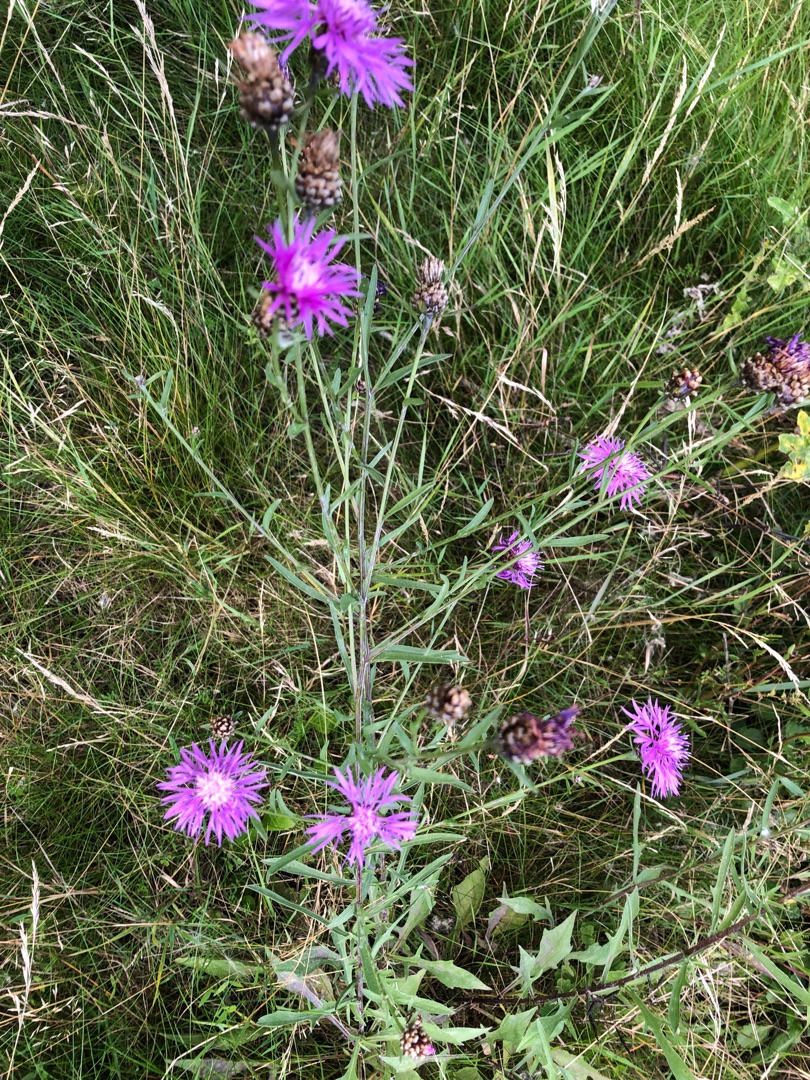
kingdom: Plantae
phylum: Tracheophyta
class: Magnoliopsida
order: Asterales
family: Asteraceae
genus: Centaurea
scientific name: Centaurea jacea
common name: Almindelig knopurt
